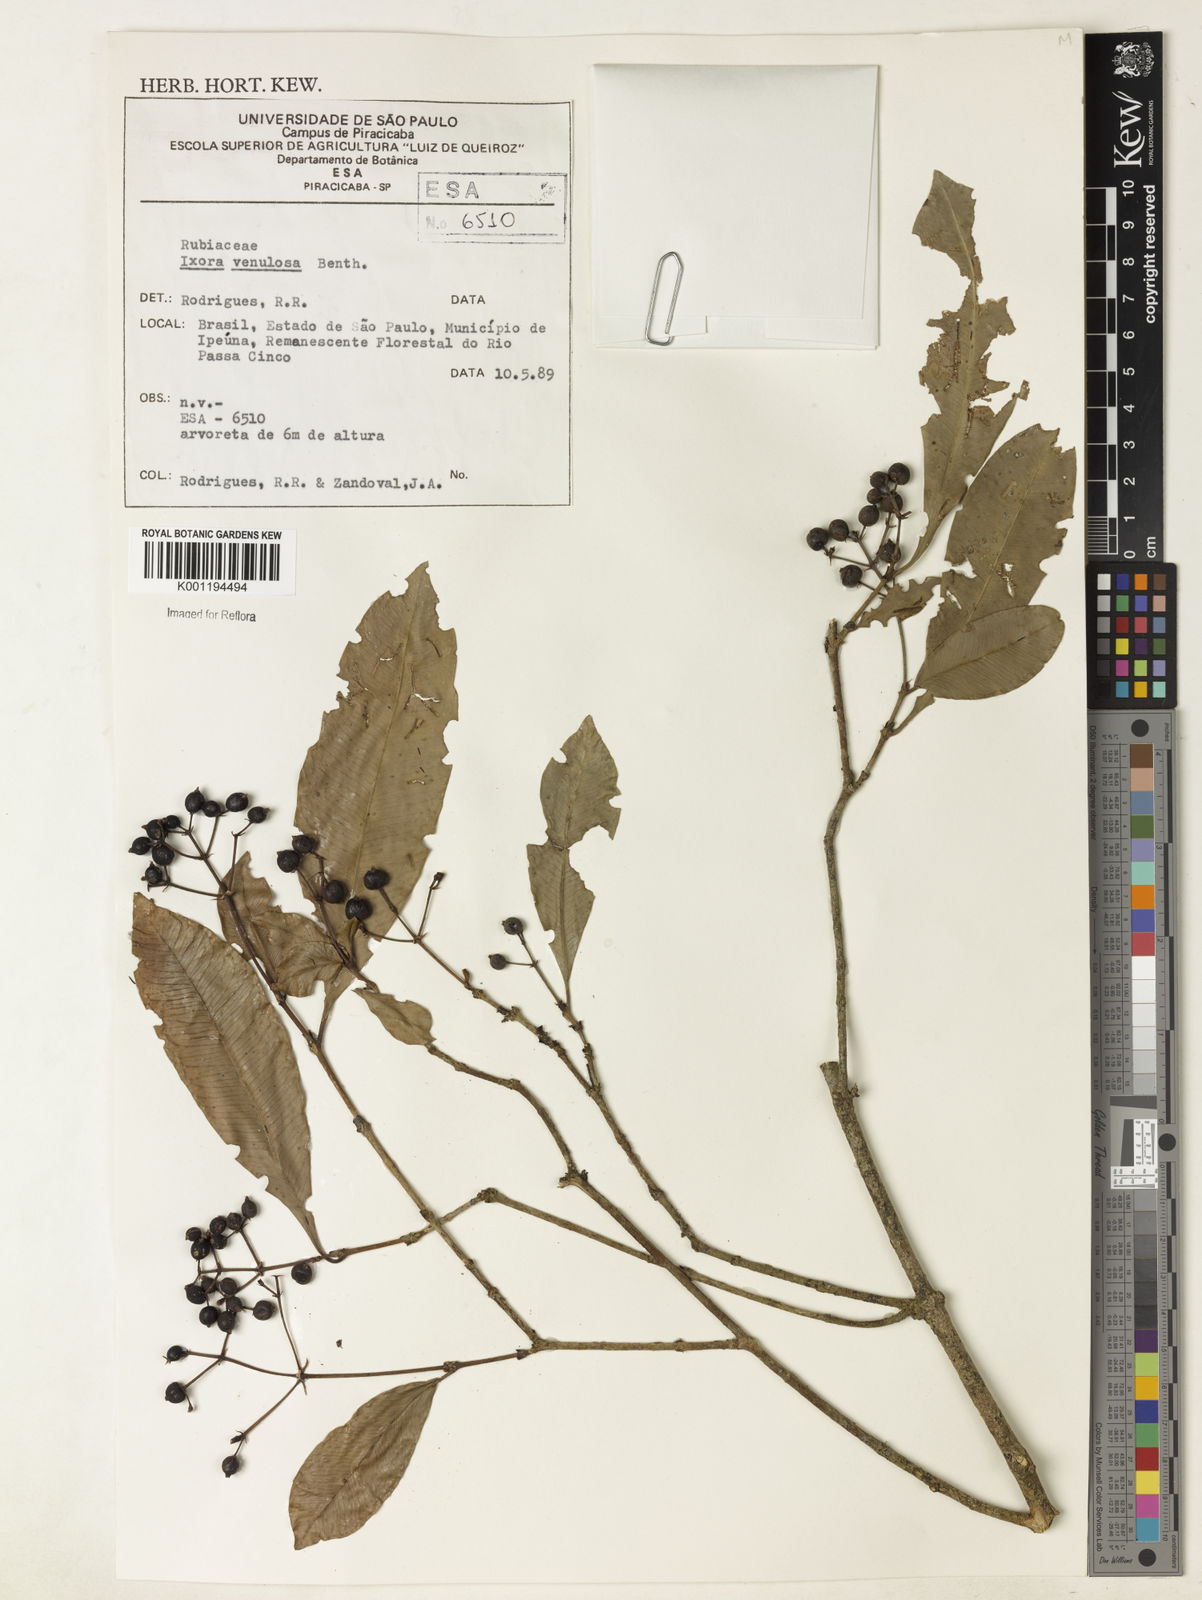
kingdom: Plantae
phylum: Tracheophyta
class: Magnoliopsida
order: Gentianales
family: Rubiaceae
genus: Ixora
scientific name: Ixora venulosa
